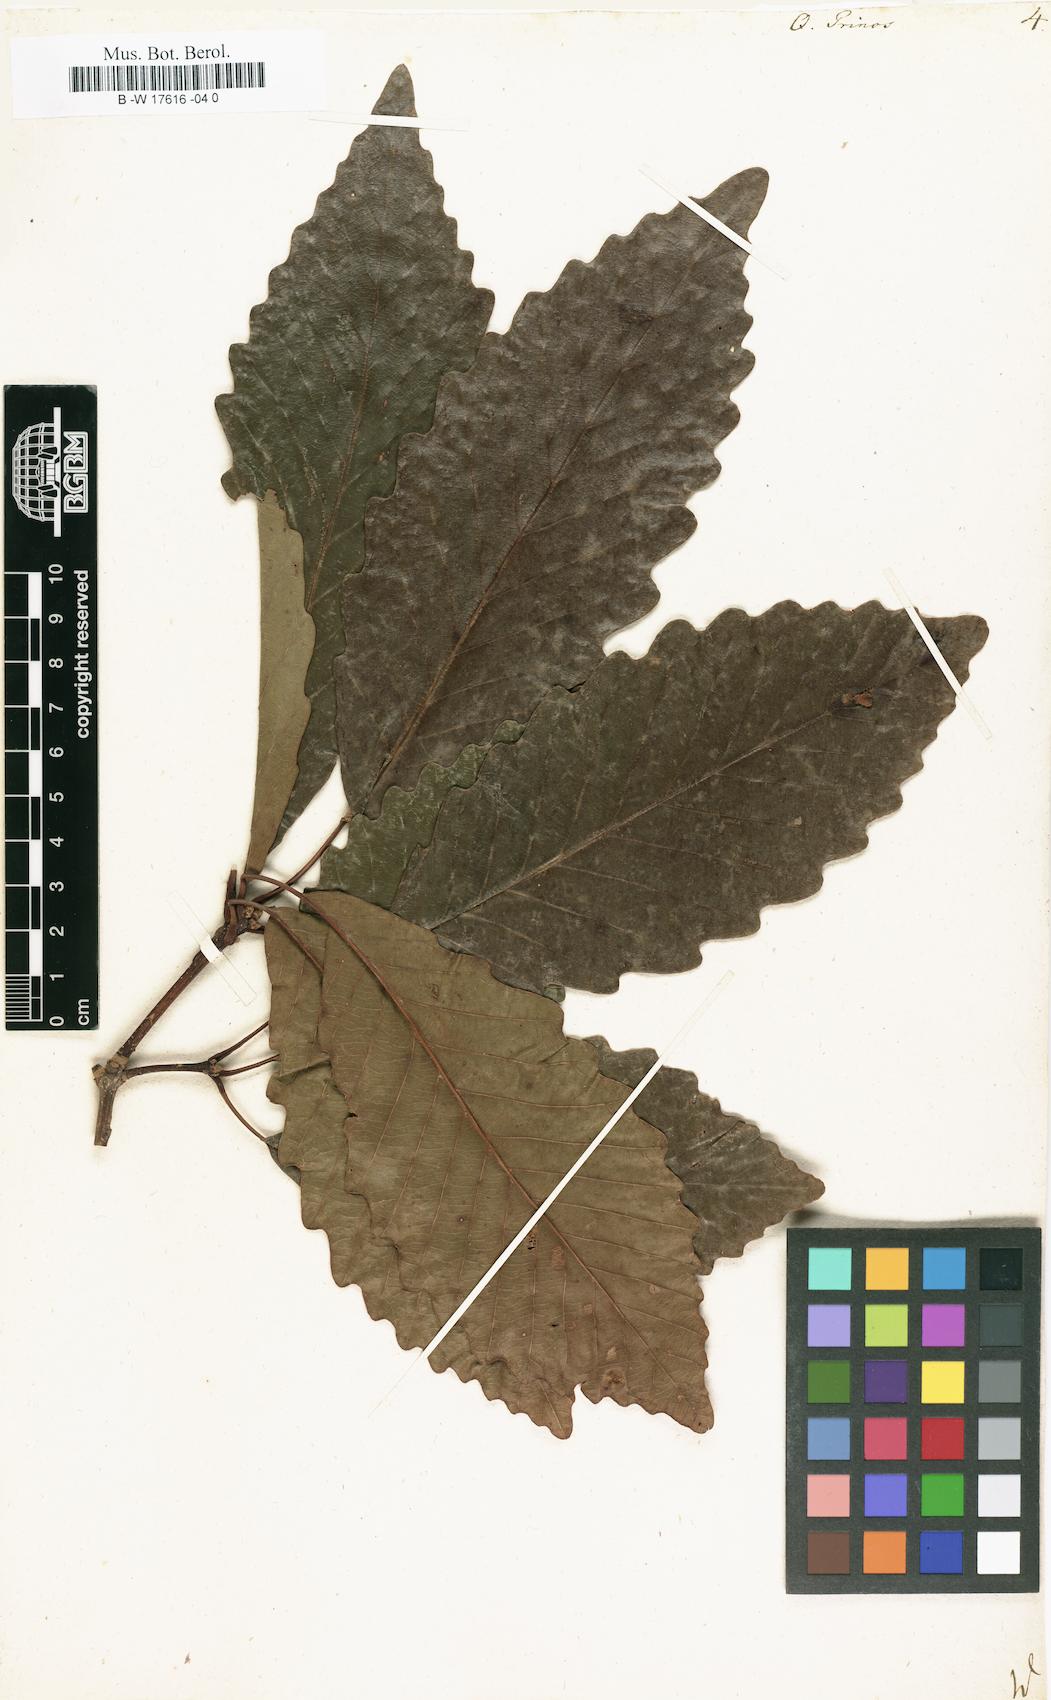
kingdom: Plantae
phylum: Tracheophyta
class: Magnoliopsida
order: Fagales
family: Fagaceae
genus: Quercus
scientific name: Quercus michauxii
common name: Swamp chestnut oak
